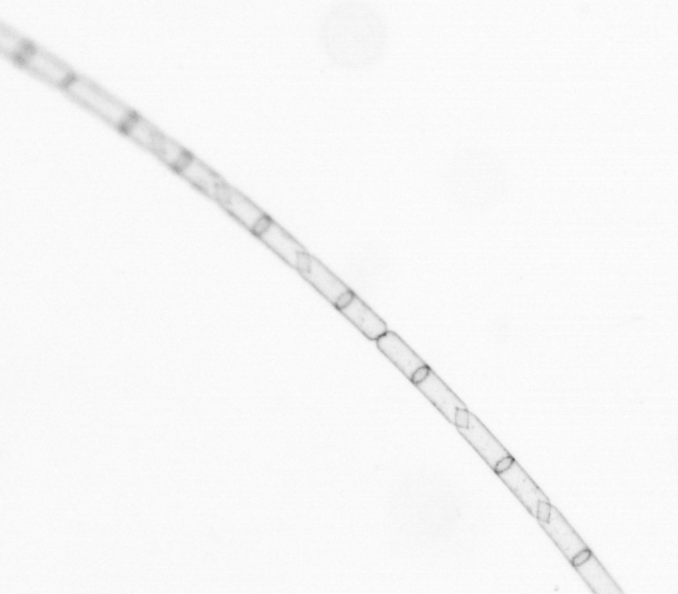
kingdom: Chromista
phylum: Ochrophyta
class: Bacillariophyceae
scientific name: Bacillariophyceae
